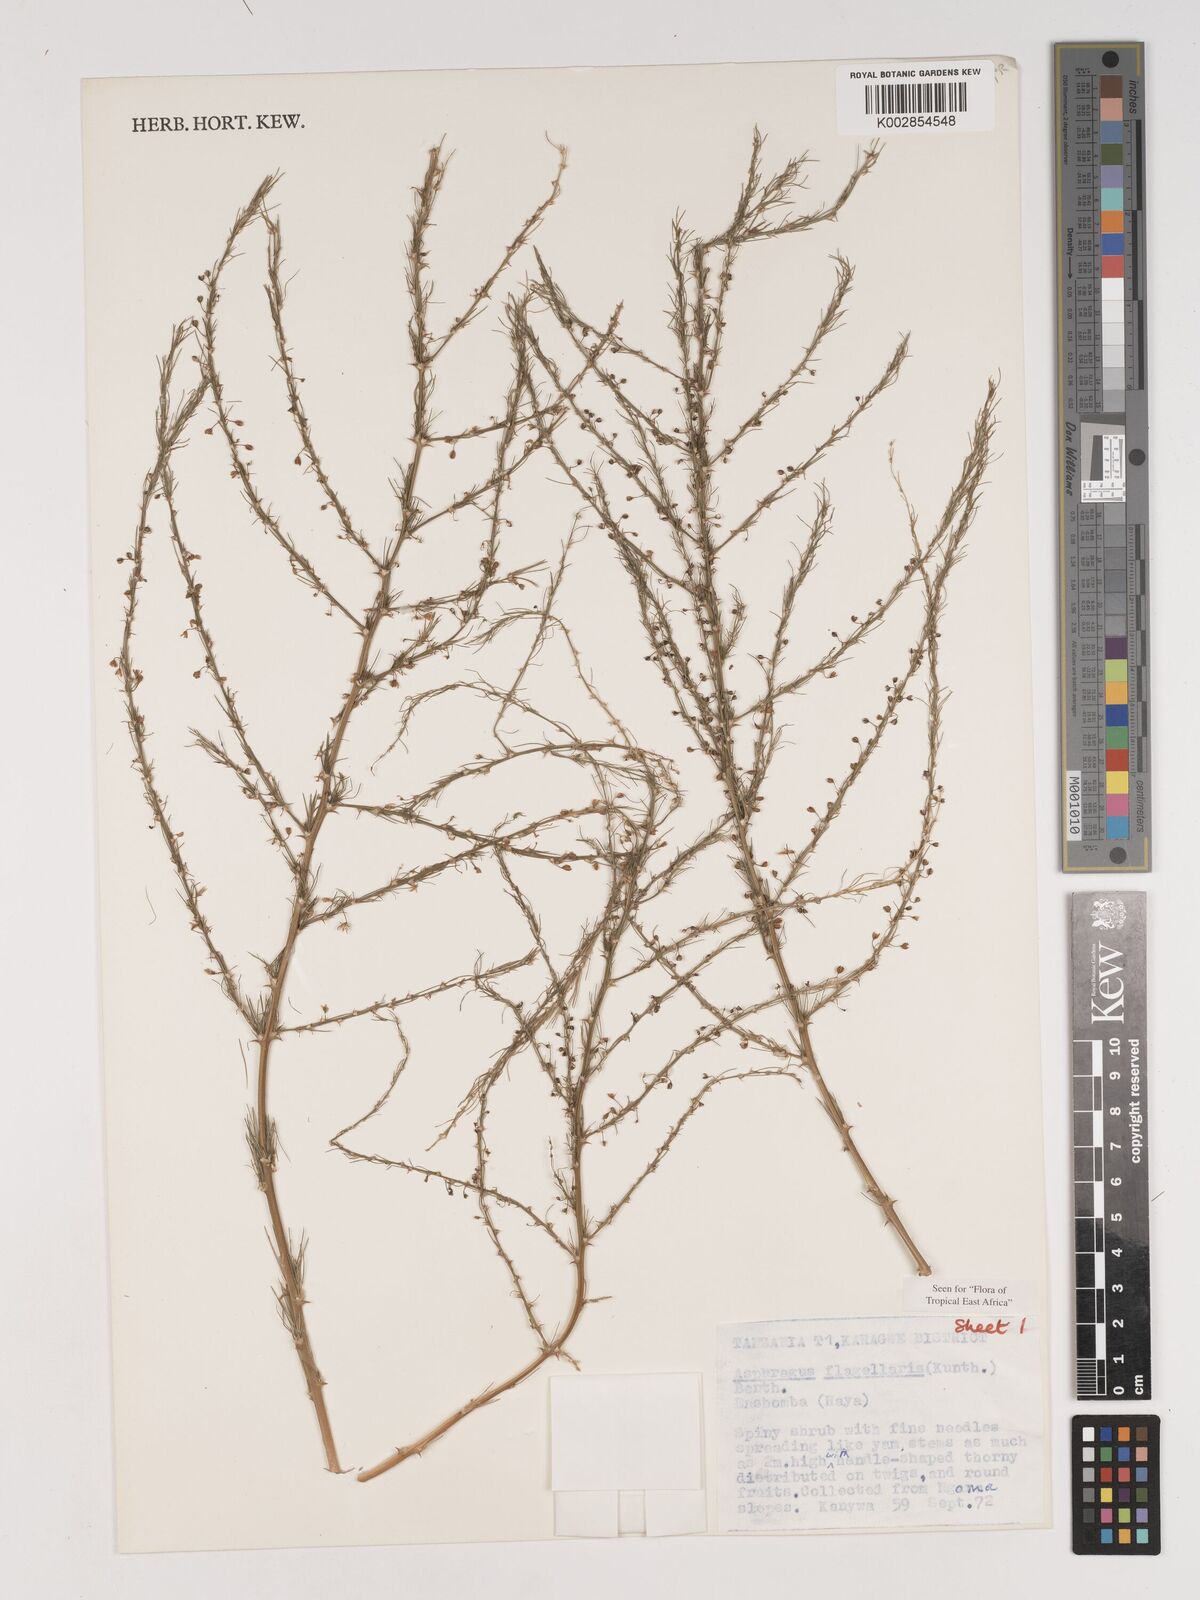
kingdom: Plantae
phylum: Tracheophyta
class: Liliopsida
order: Asparagales
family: Asparagaceae
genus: Asparagus
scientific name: Asparagus flagellaris
